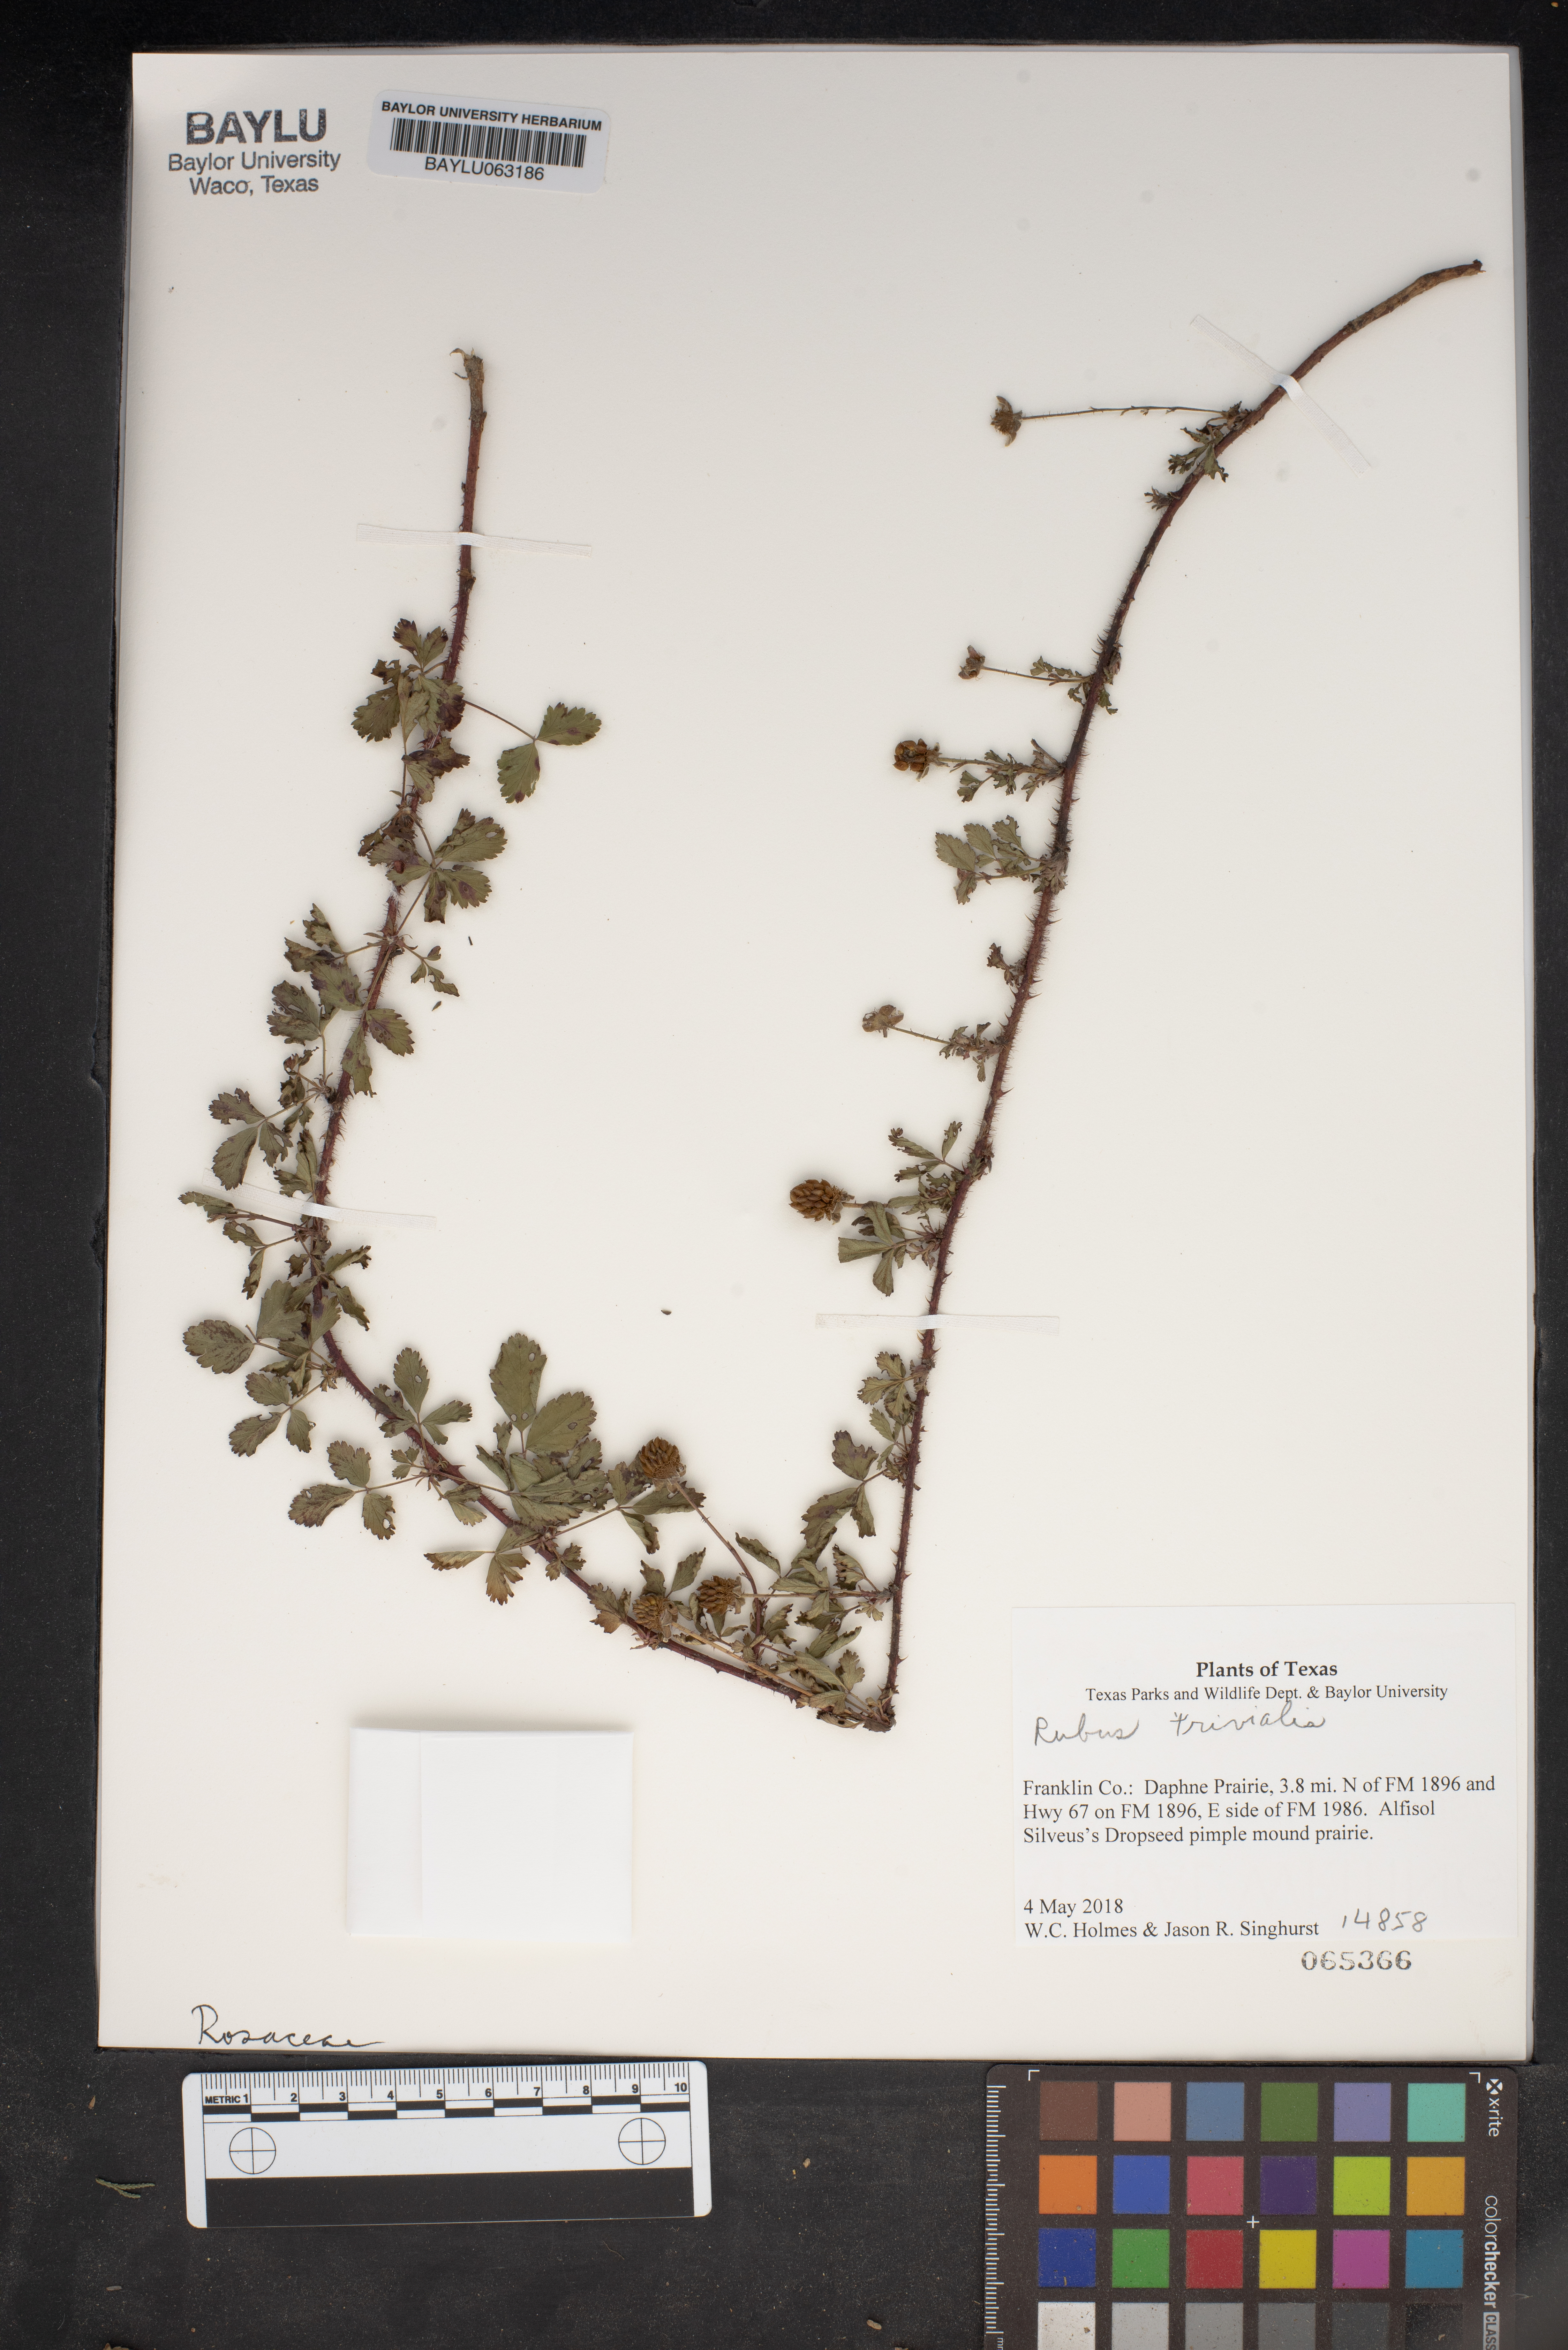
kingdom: Plantae
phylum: Tracheophyta
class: Magnoliopsida
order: Rosales
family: Rosaceae
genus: Rubus
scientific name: Rubus trivialis
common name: Southern dewberry
